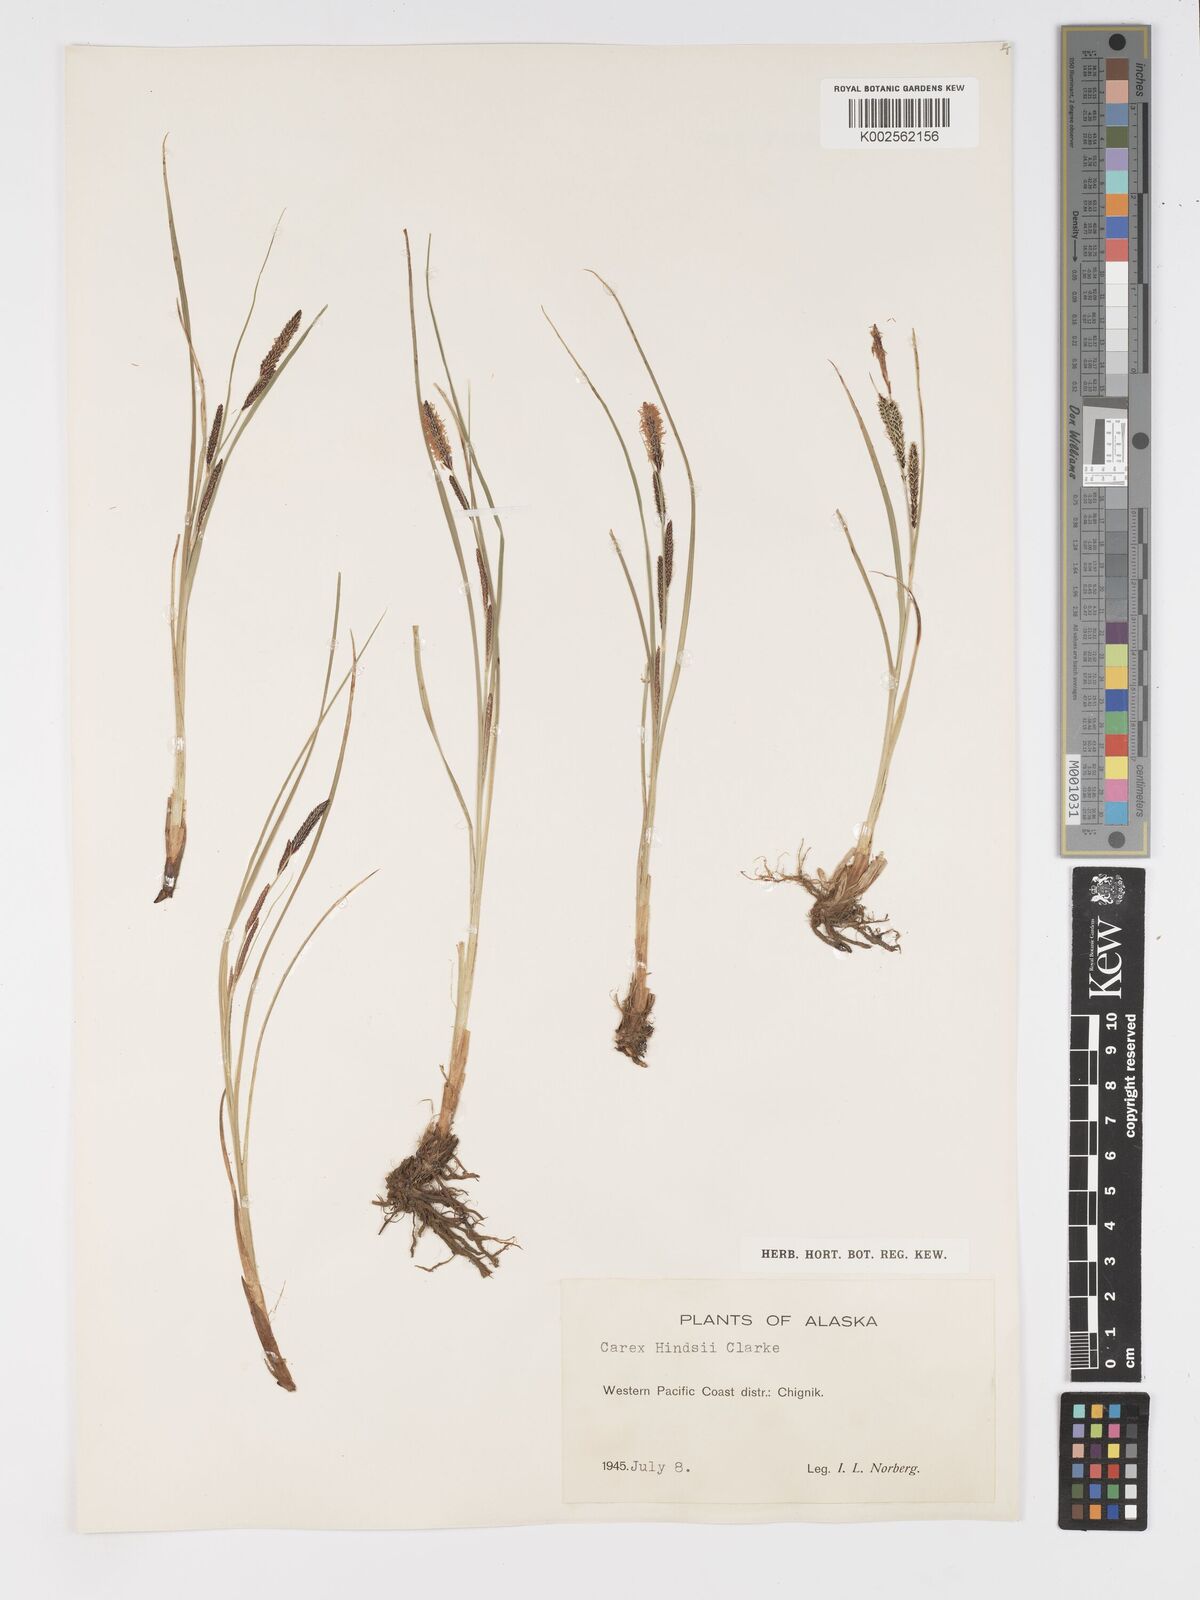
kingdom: Plantae
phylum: Tracheophyta
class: Liliopsida
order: Poales
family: Cyperaceae
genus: Carex
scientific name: Carex kelloggii
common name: Kellogg's sedge
